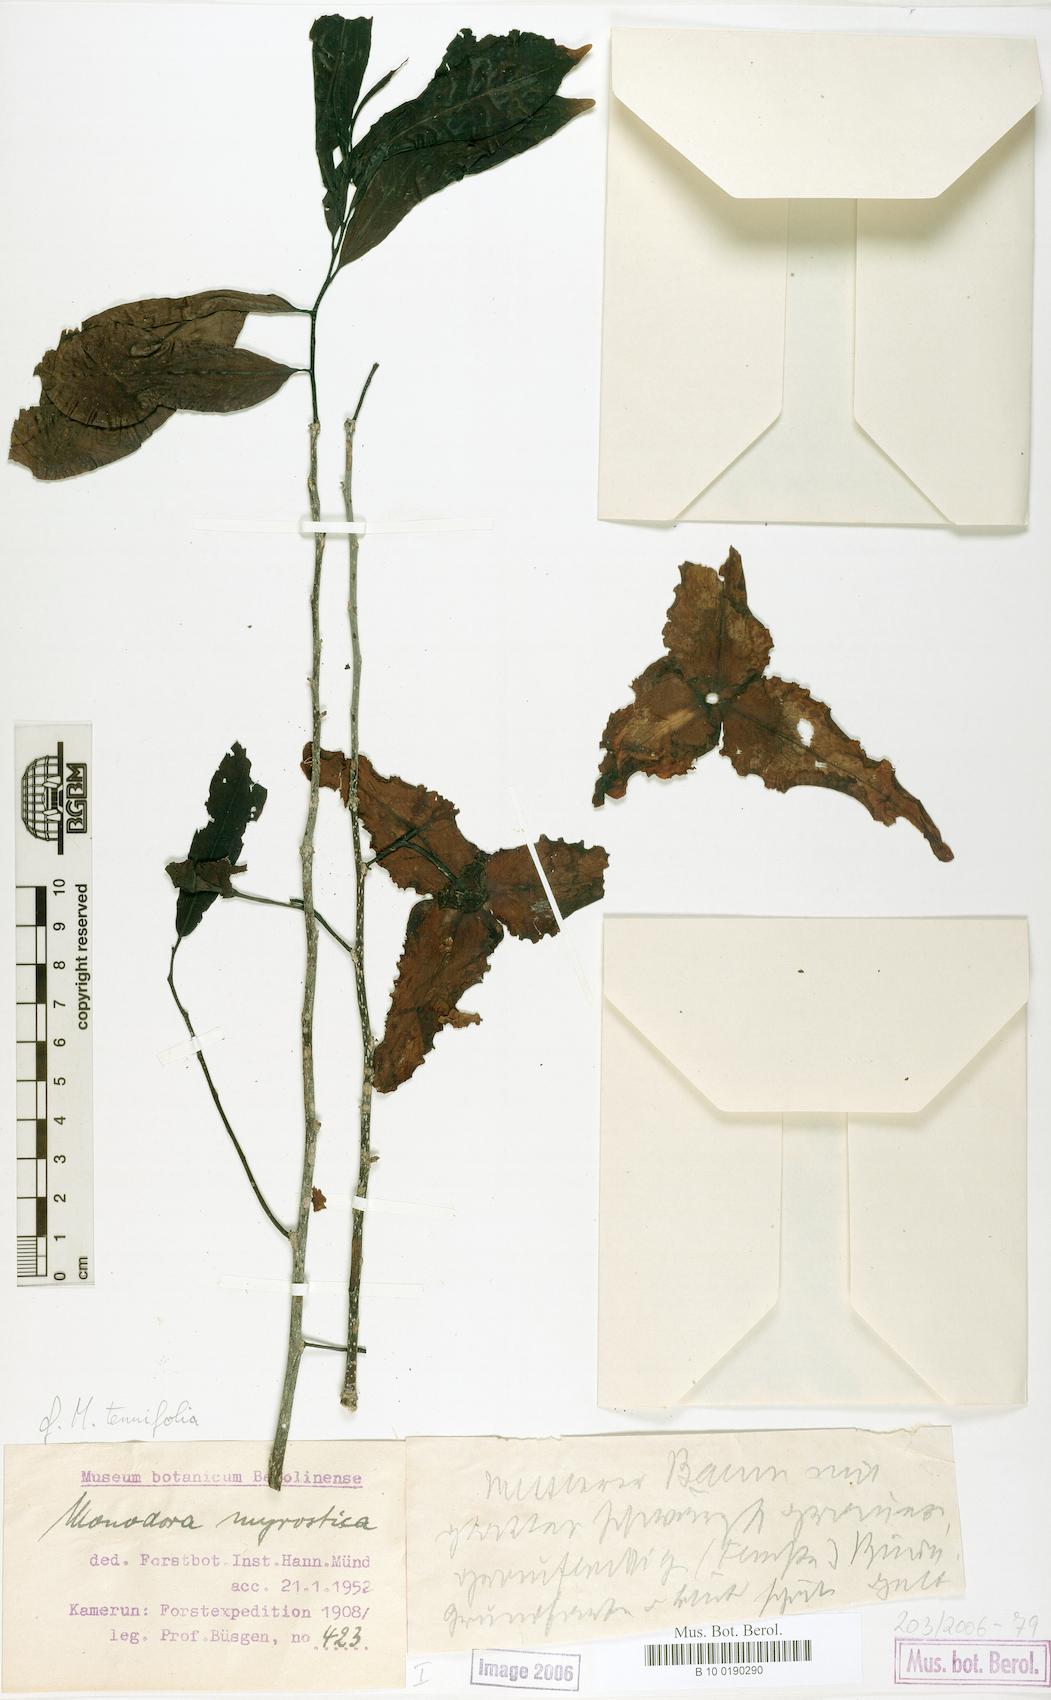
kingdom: Plantae
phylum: Tracheophyta
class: Magnoliopsida
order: Magnoliales
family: Annonaceae
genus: Monodora
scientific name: Monodora tenuifolia
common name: Orchidtree
